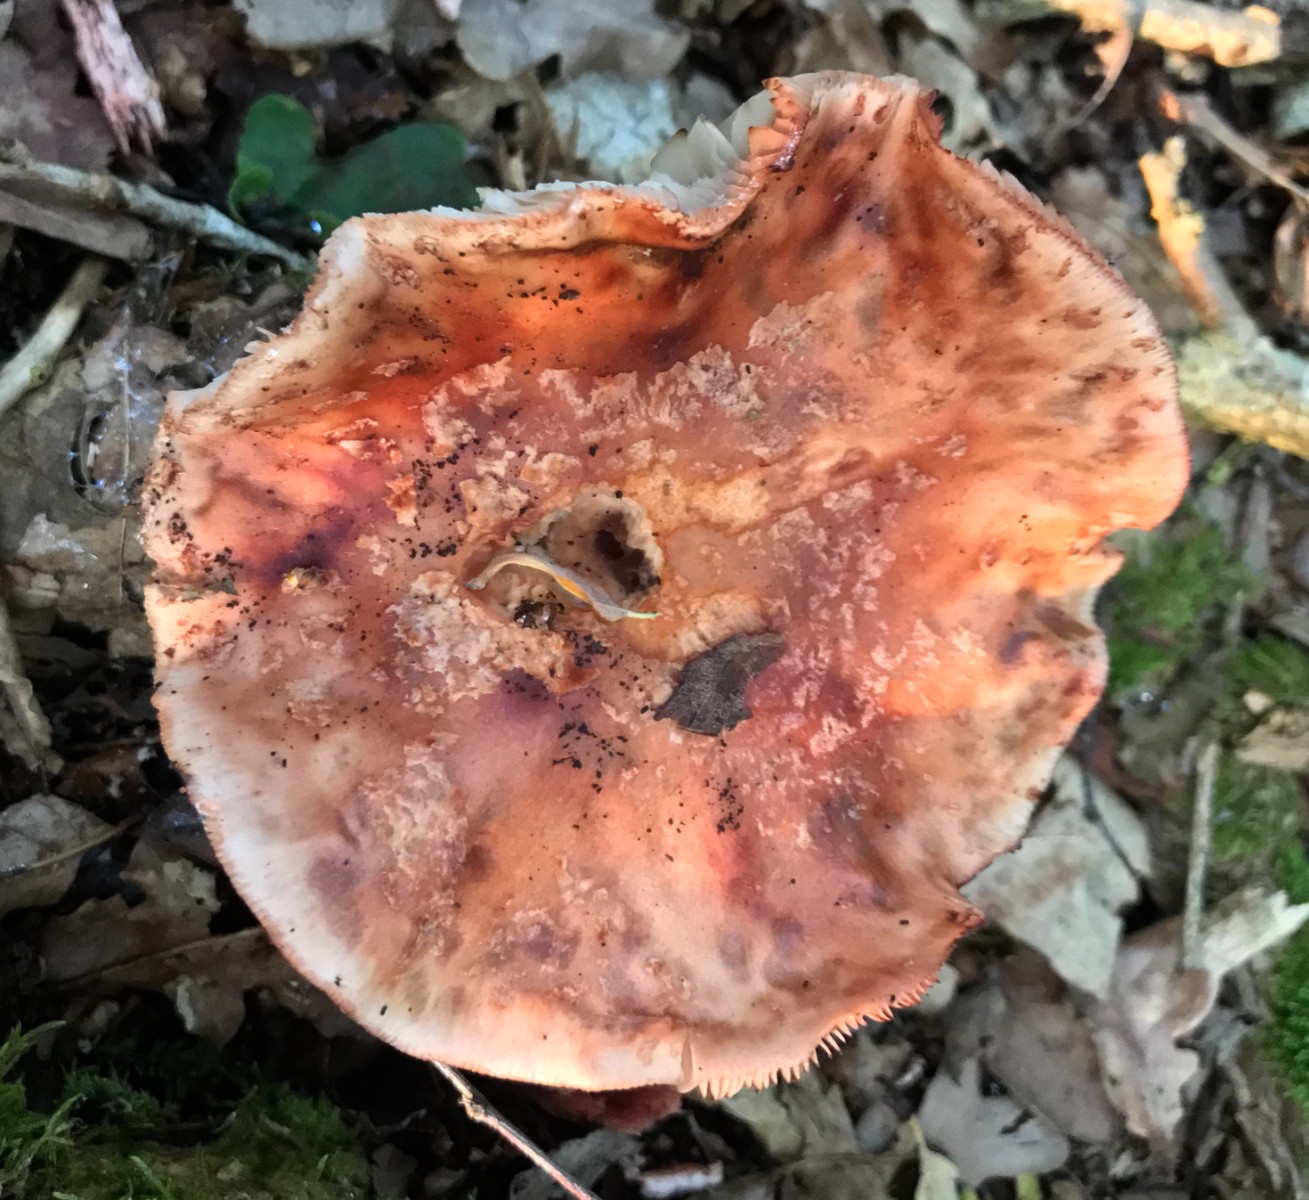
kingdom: Fungi
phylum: Basidiomycota
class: Agaricomycetes
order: Agaricales
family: Amanitaceae
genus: Amanita
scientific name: Amanita rubescens
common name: rødmende fluesvamp
